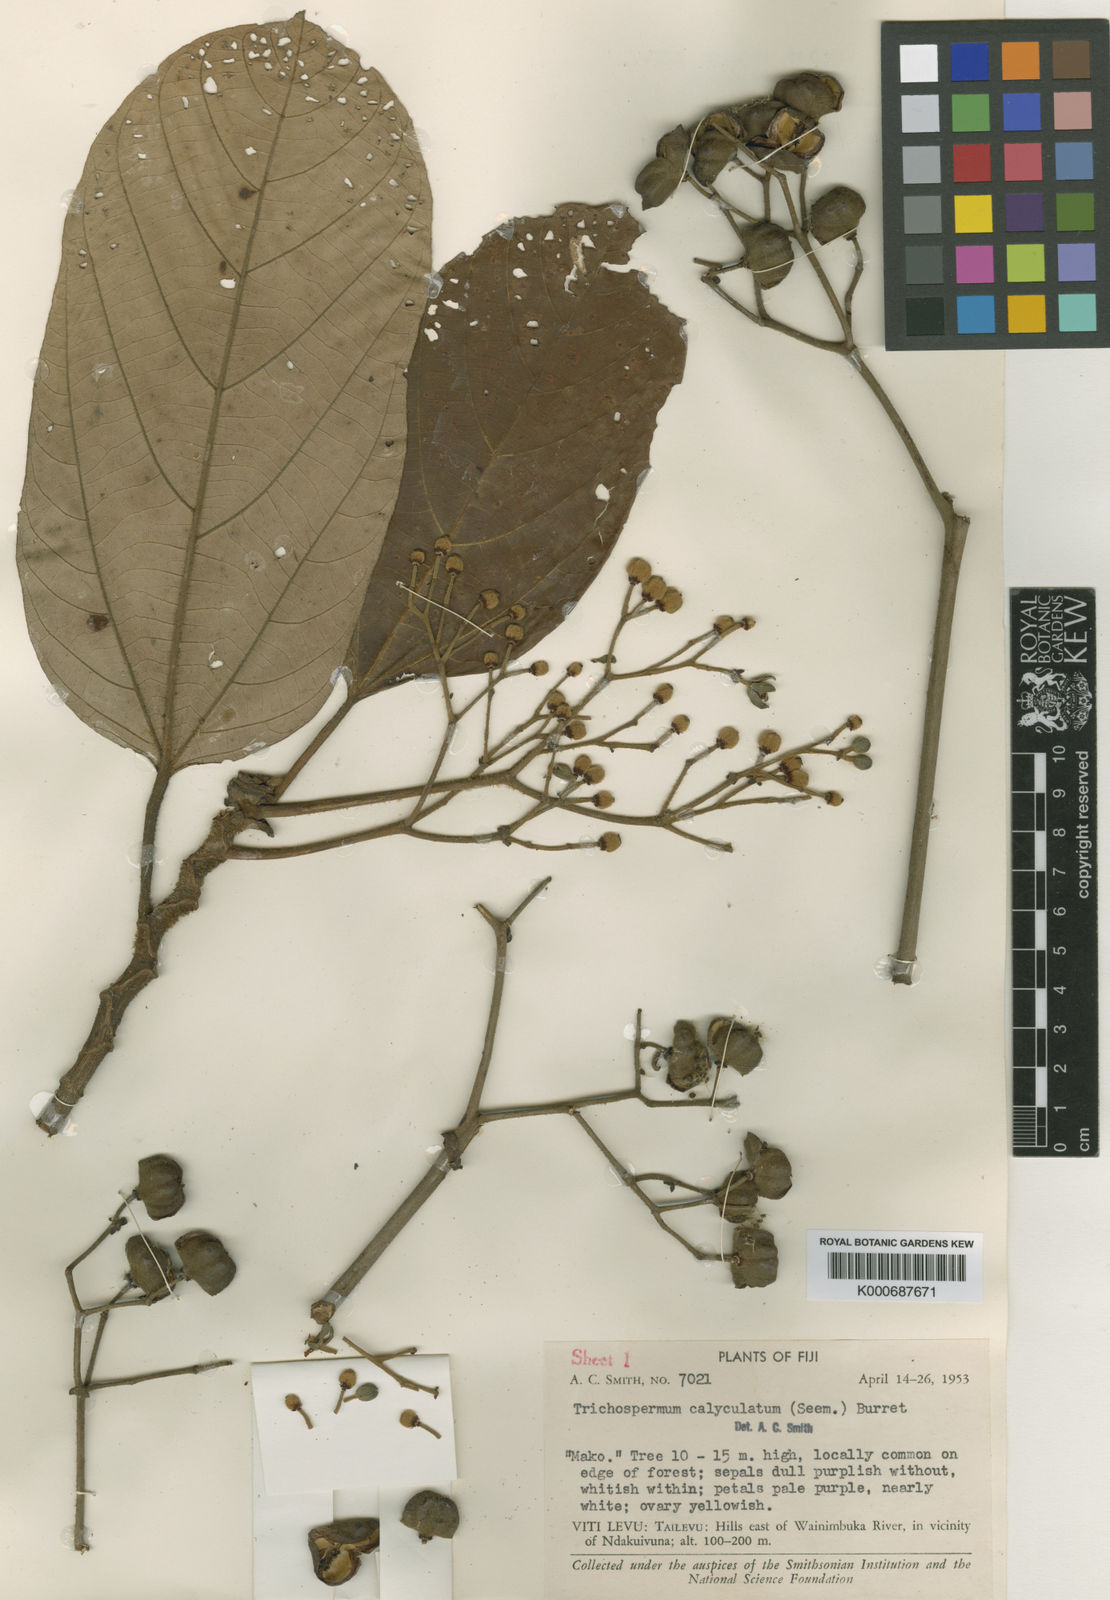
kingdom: Plantae
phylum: Tracheophyta
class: Magnoliopsida
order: Malvales
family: Malvaceae
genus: Trichospermum
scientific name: Trichospermum calyculatum
